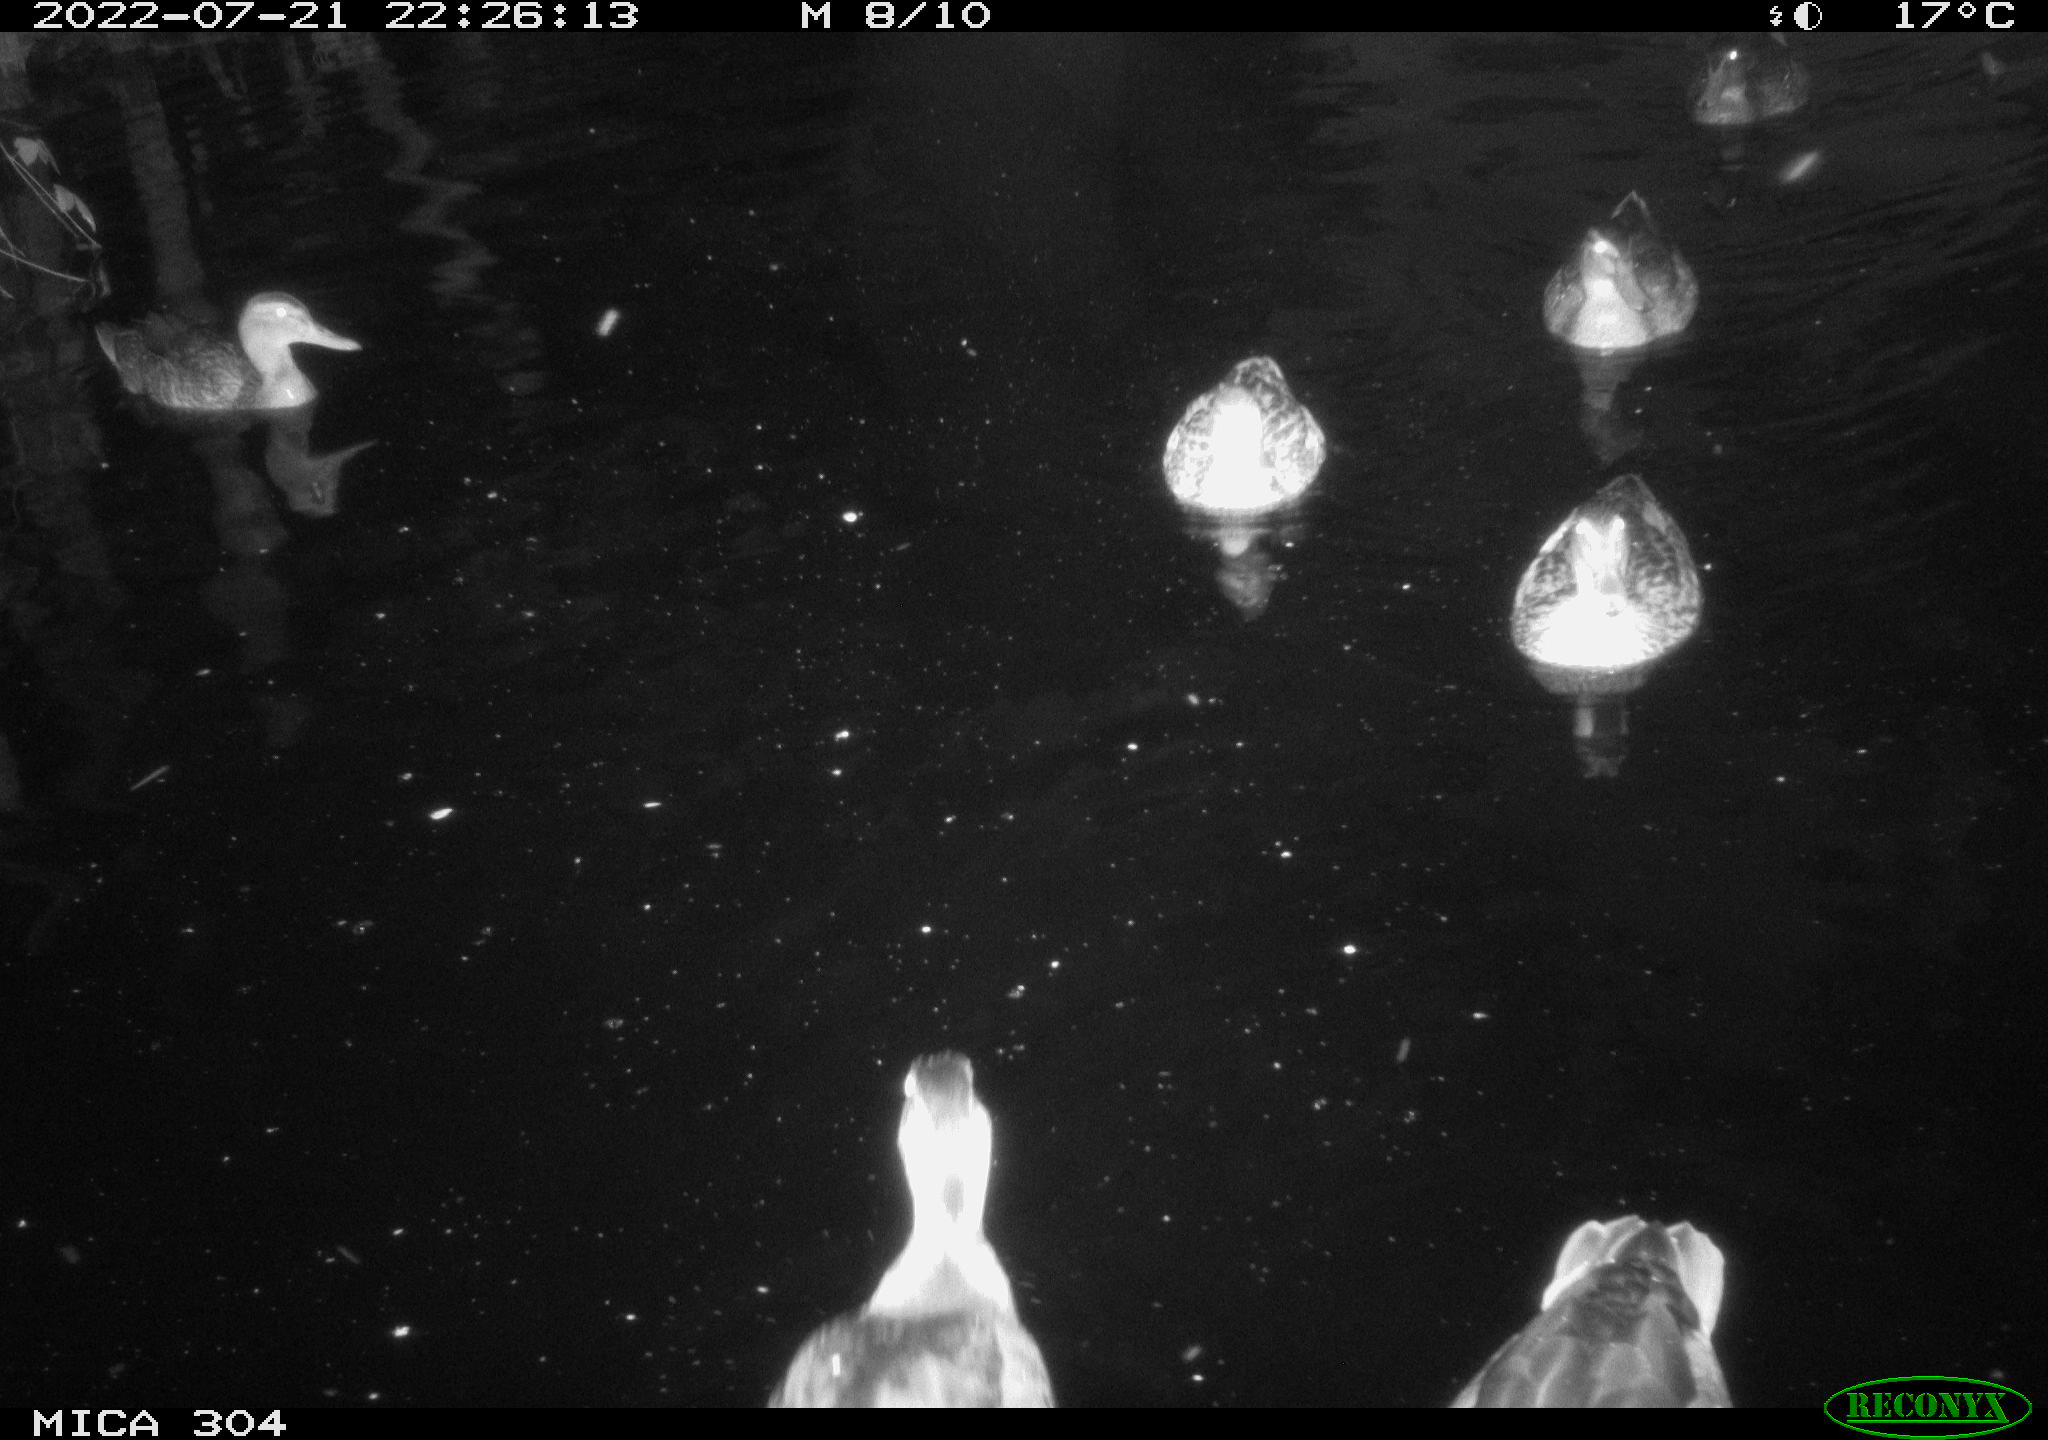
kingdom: Animalia
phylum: Chordata
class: Aves
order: Anseriformes
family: Anatidae
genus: Mareca
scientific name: Mareca strepera
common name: Gadwall
